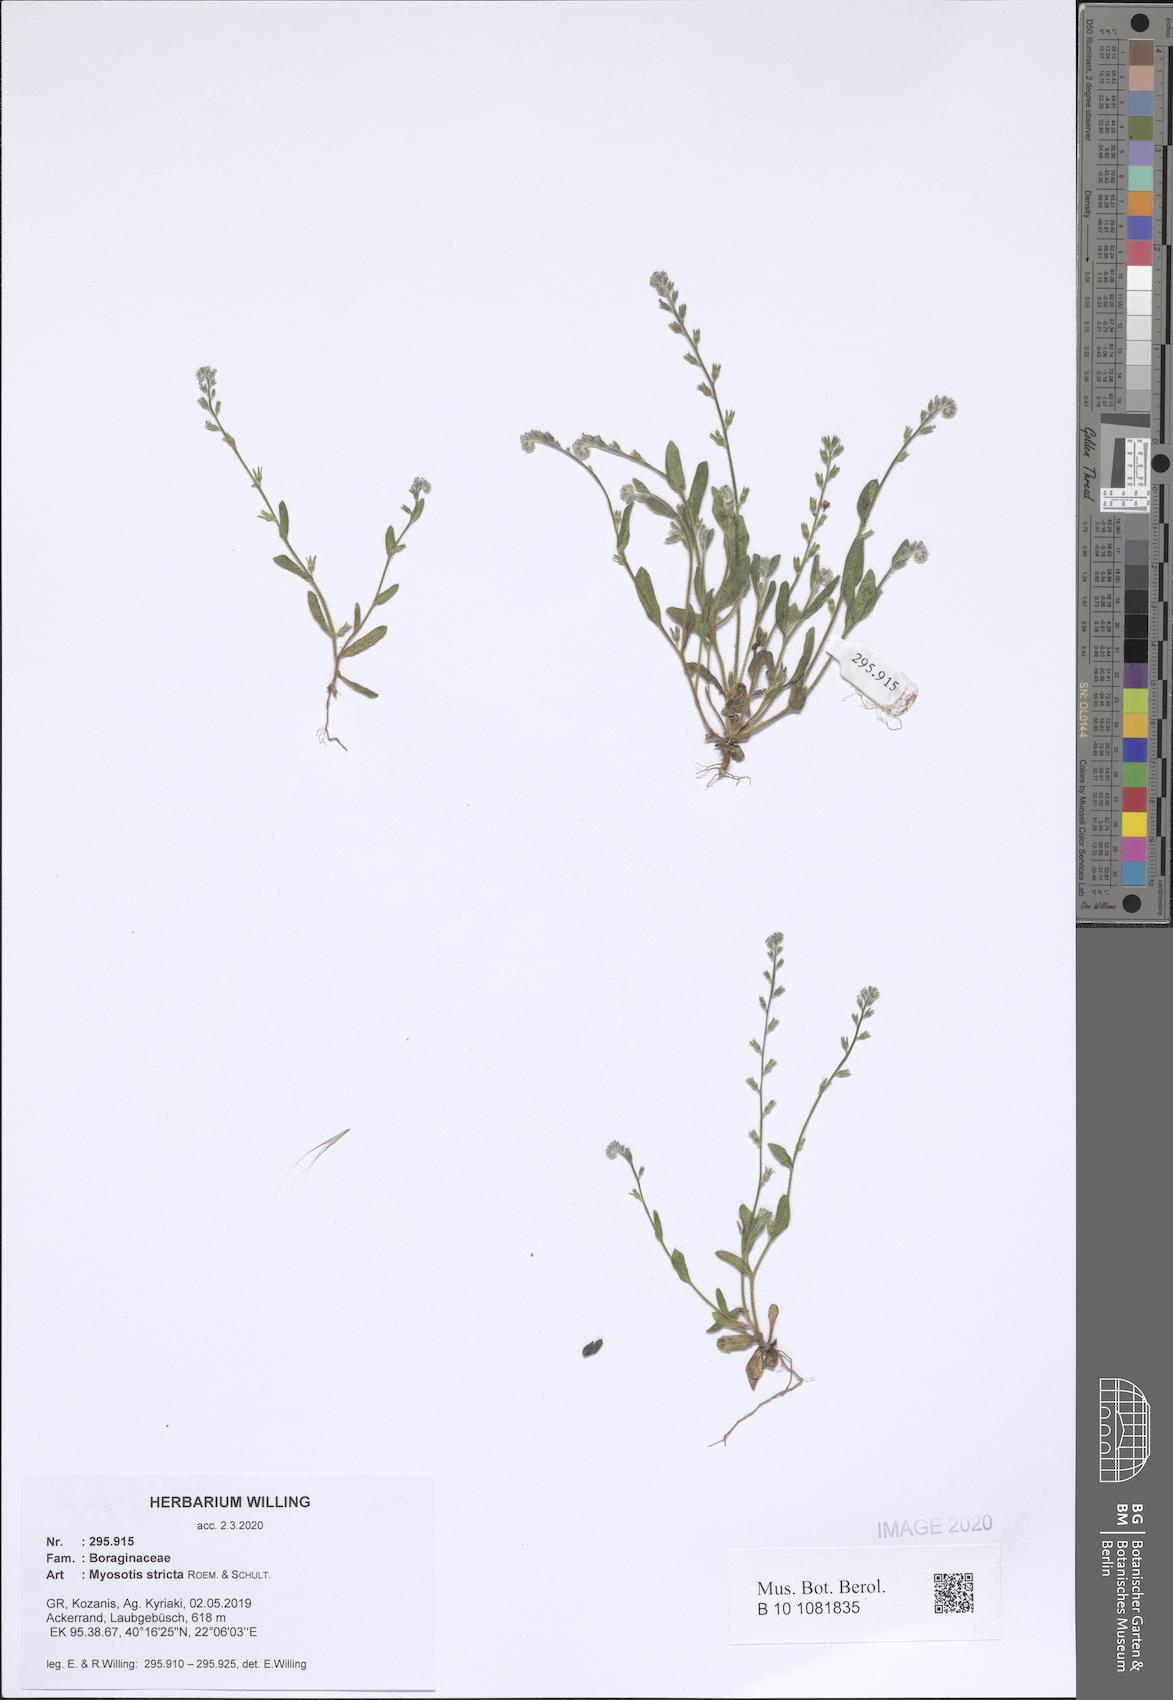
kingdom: Plantae
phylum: Tracheophyta
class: Magnoliopsida
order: Boraginales
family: Boraginaceae
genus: Myosotis
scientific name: Myosotis stricta
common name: Strict forget-me-not
